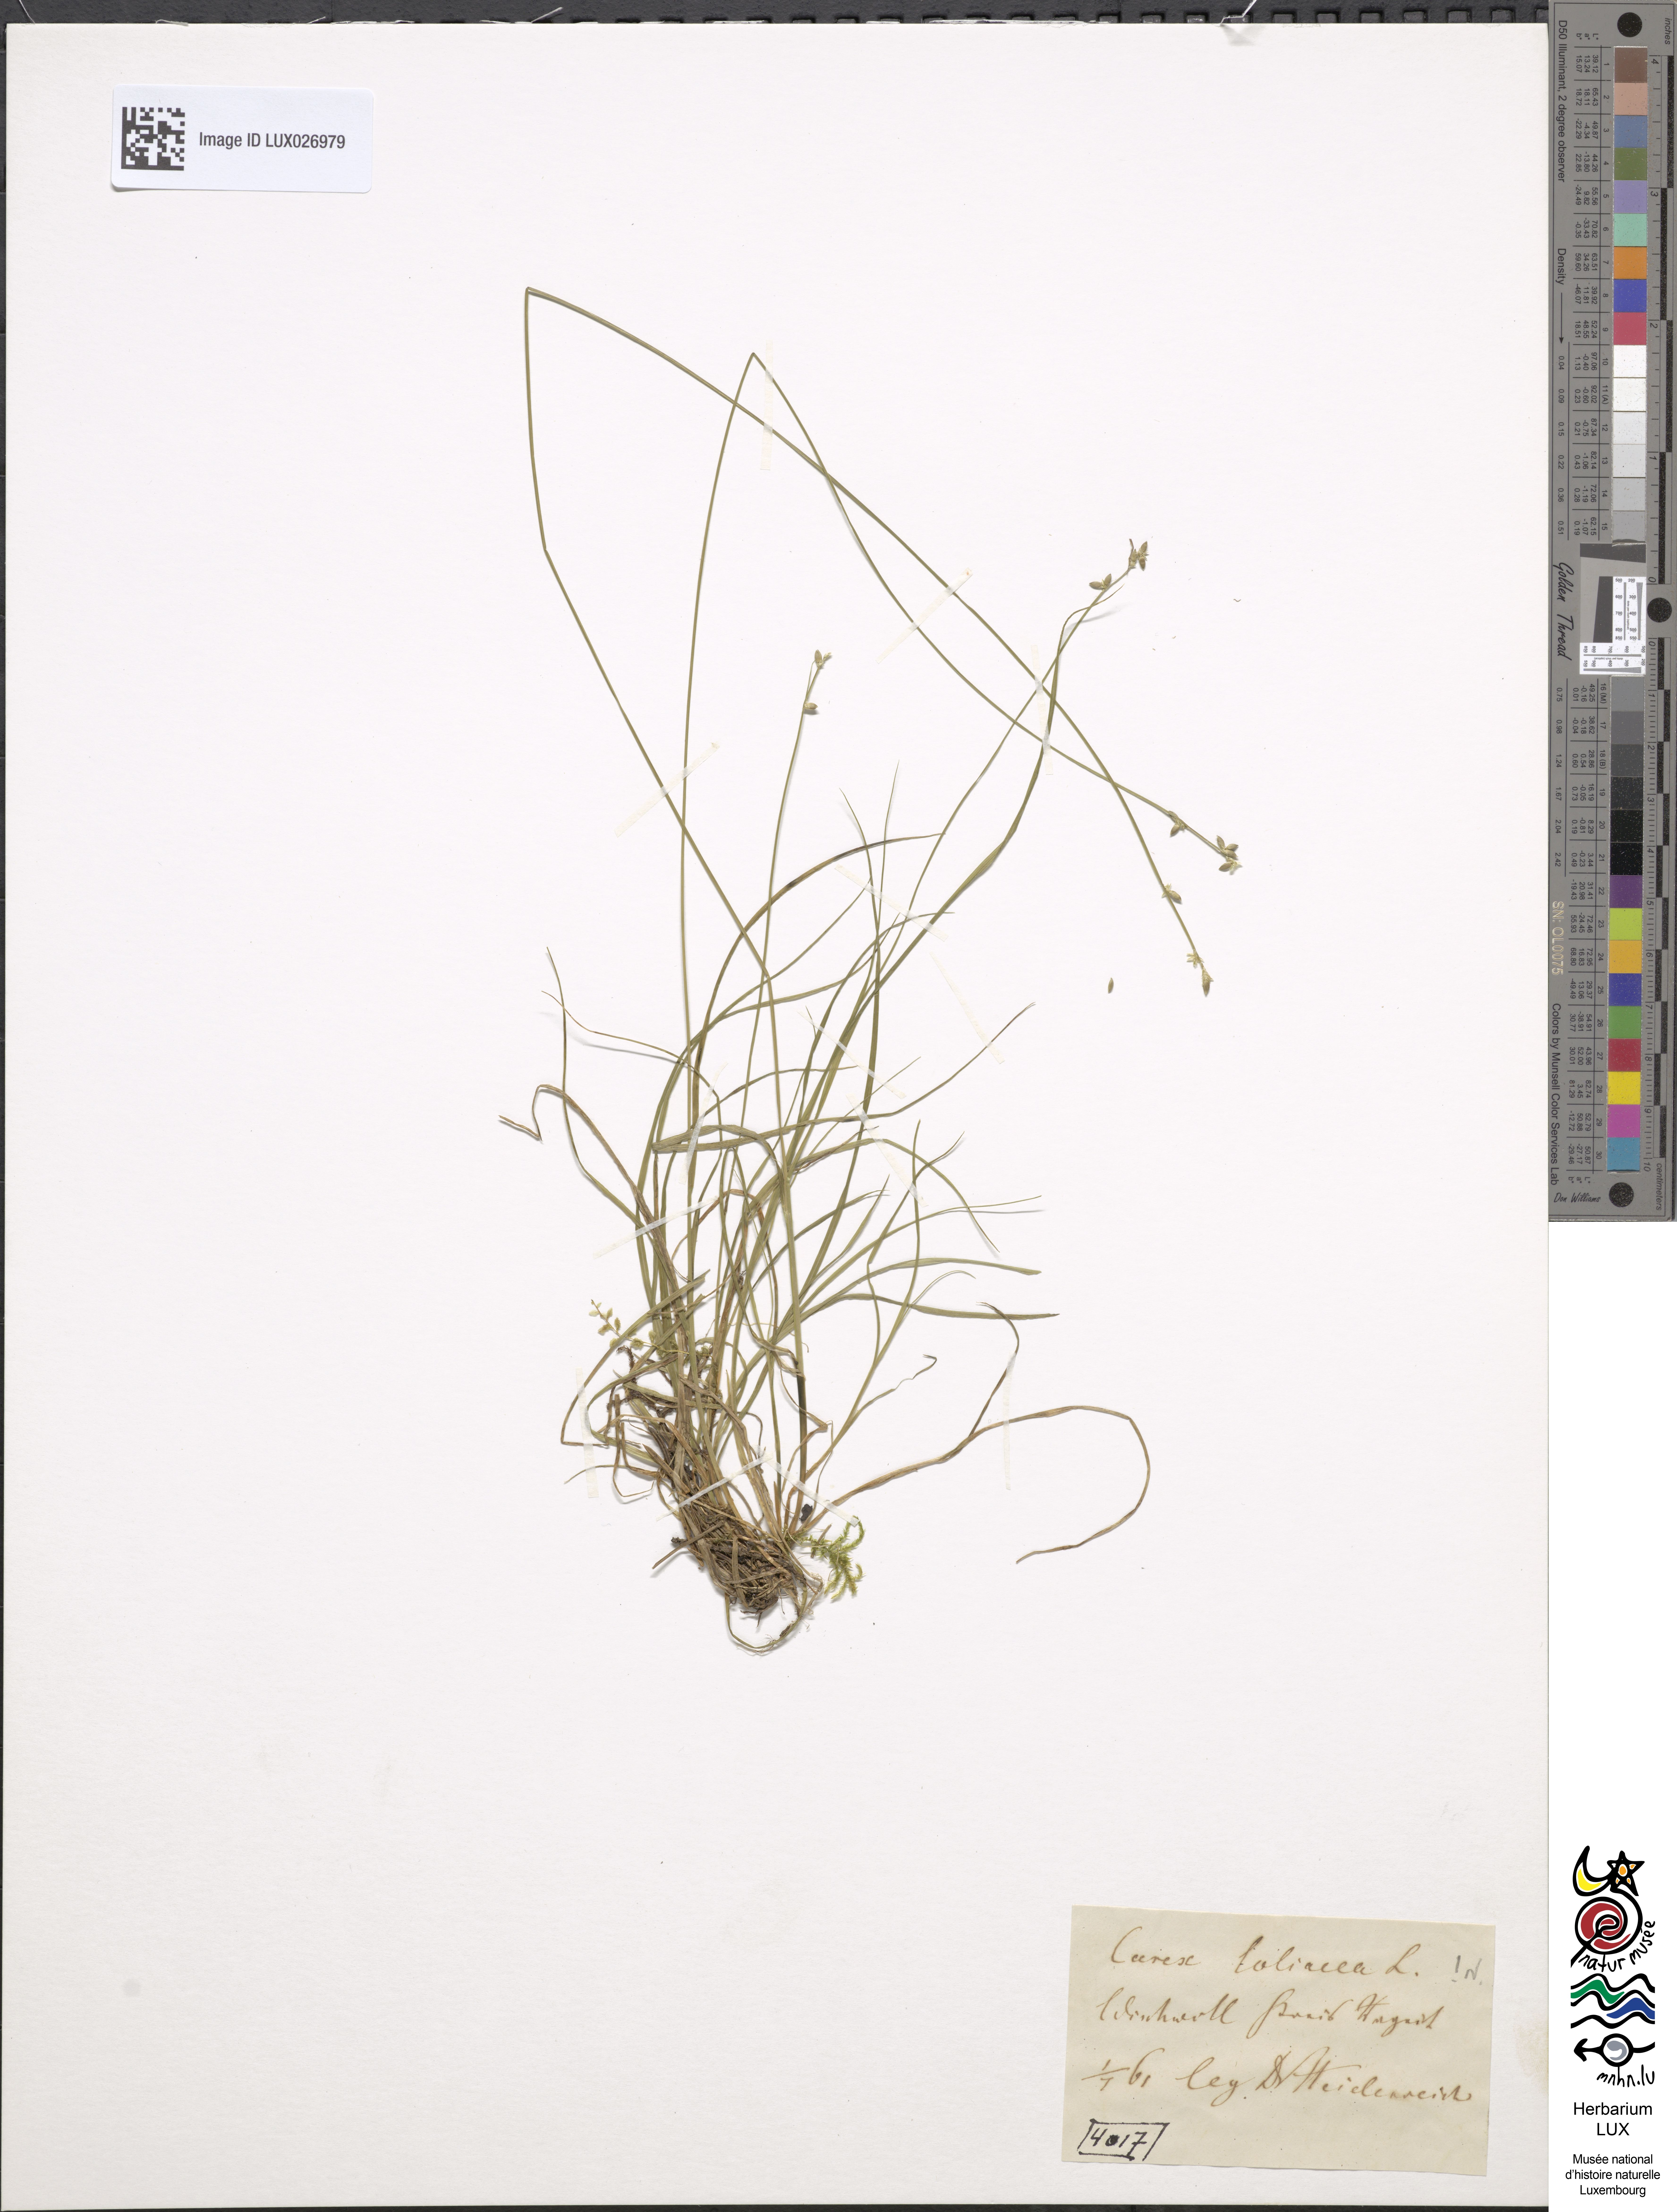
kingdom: Plantae
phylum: Tracheophyta
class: Liliopsida
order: Poales
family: Cyperaceae
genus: Carex
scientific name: Carex loliacea
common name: Ryegrass sedge
